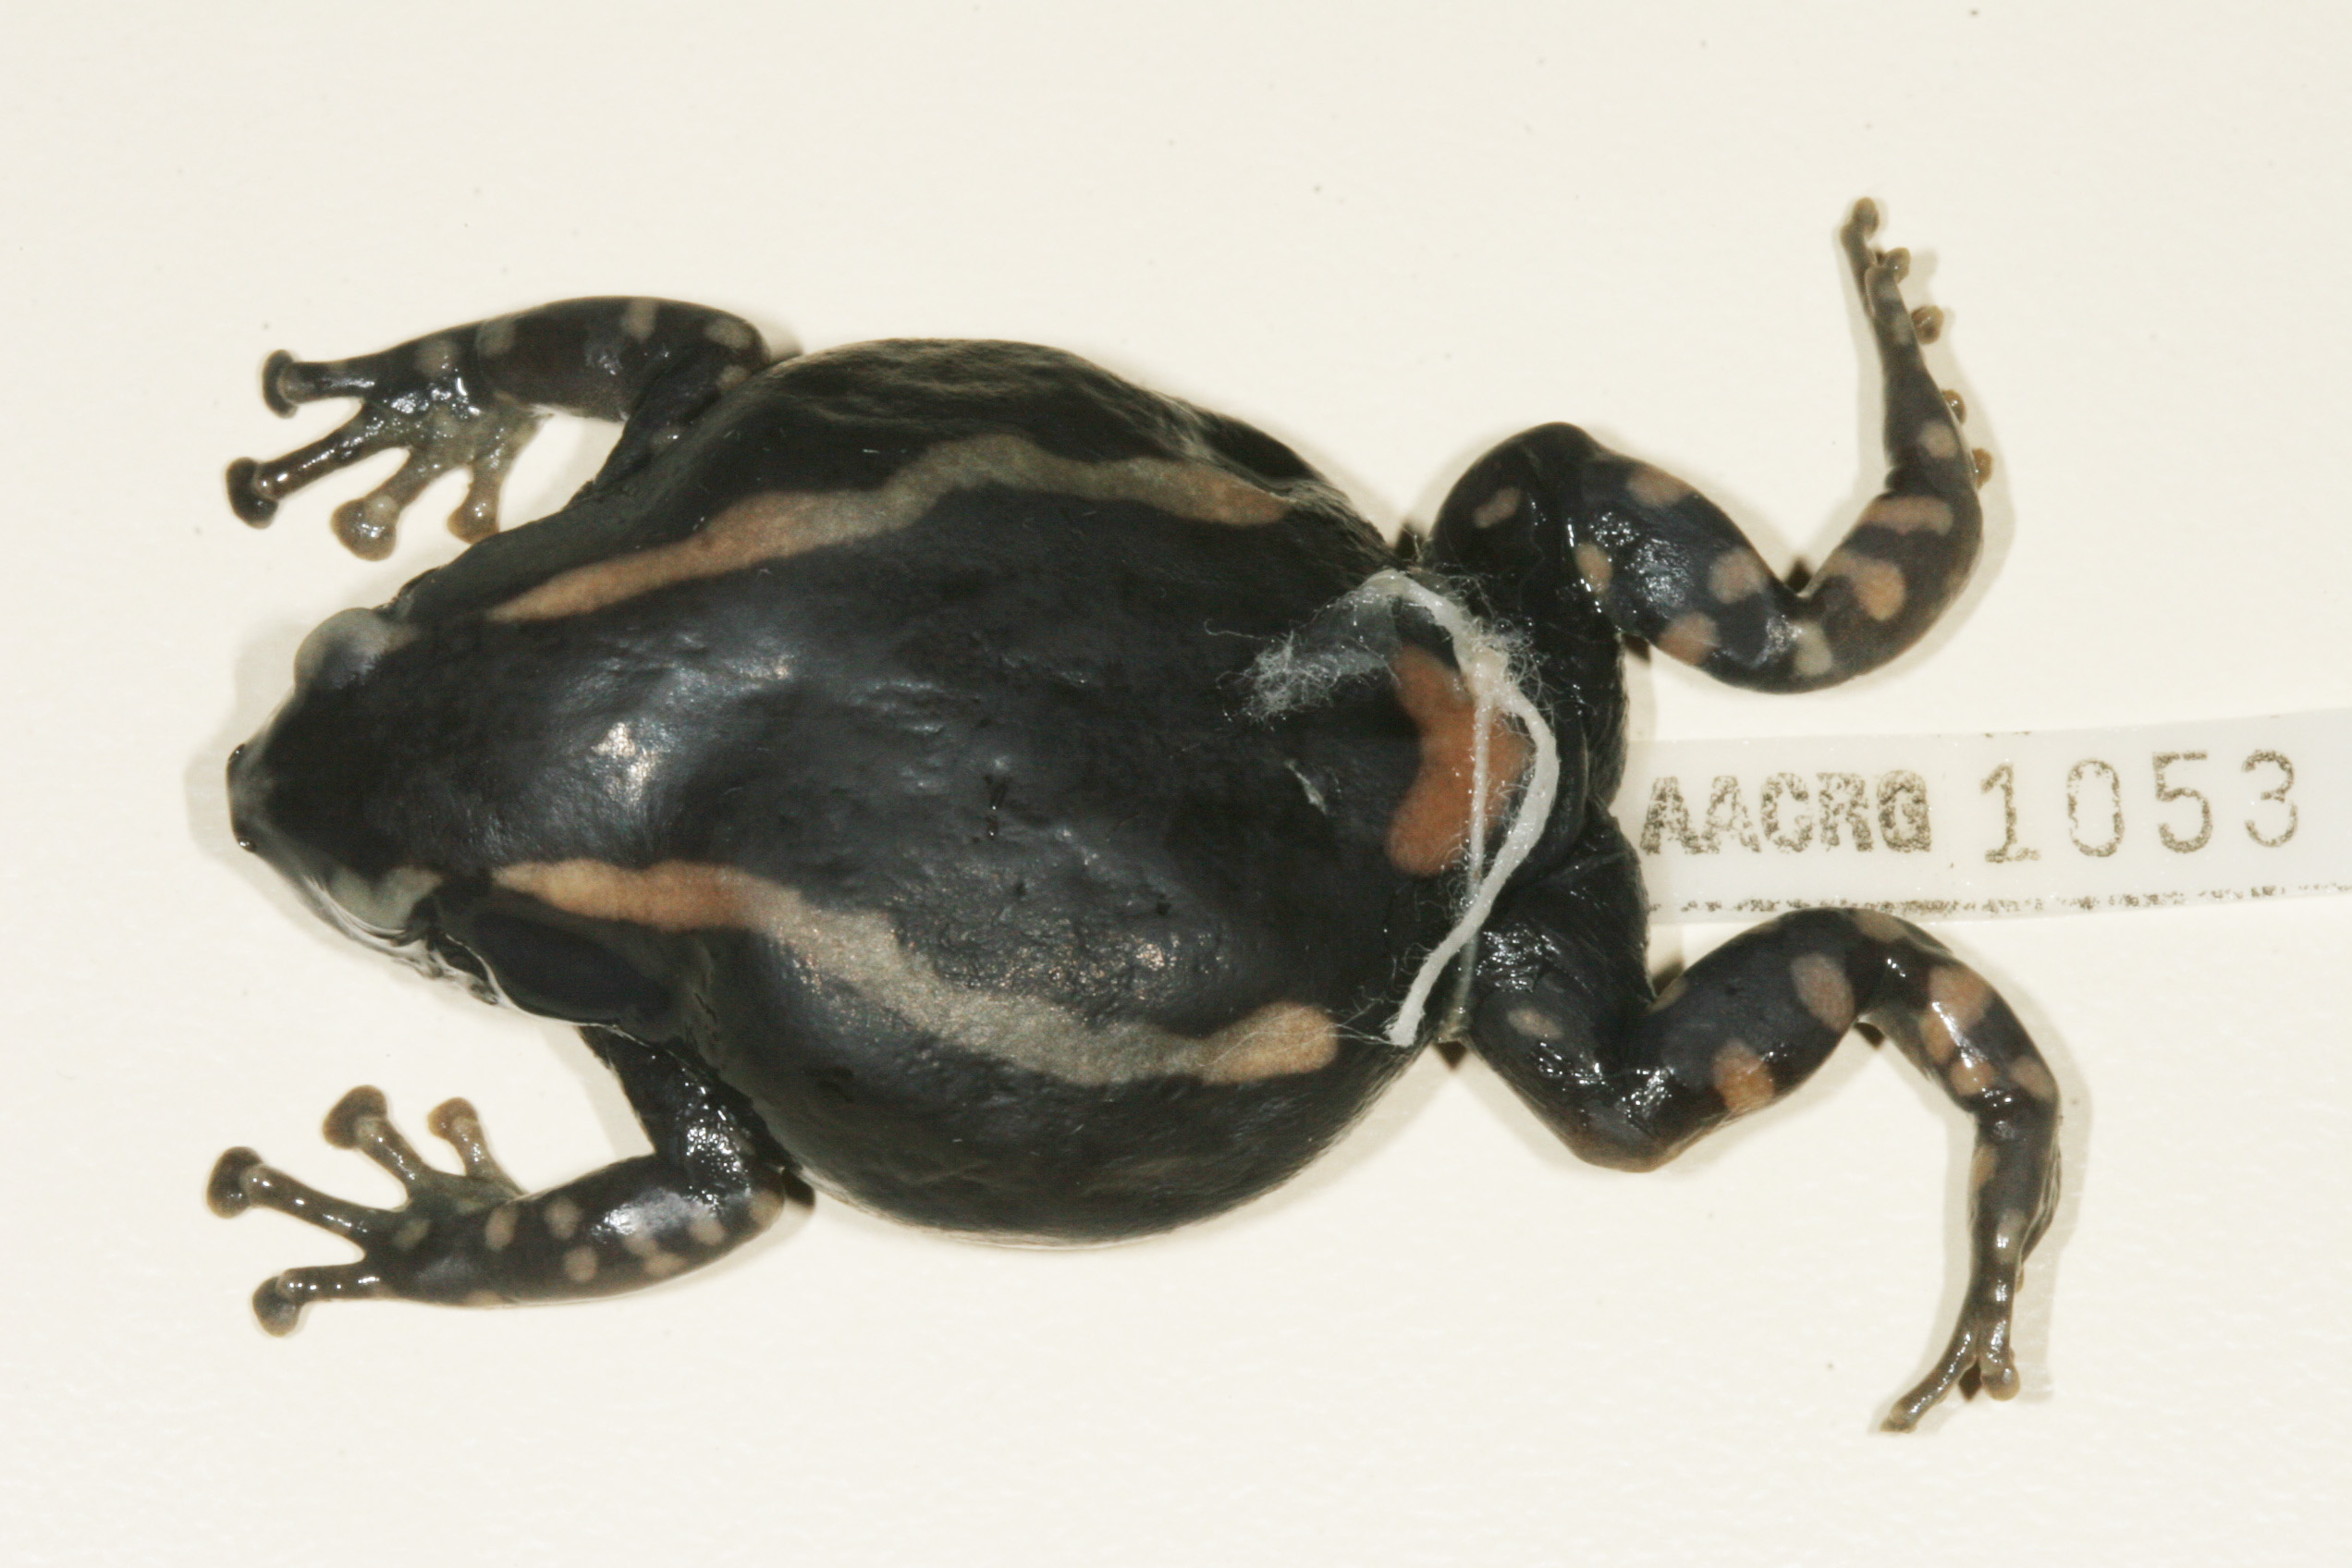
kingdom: Animalia
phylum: Chordata
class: Amphibia
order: Anura
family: Microhylidae
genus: Phrynomantis
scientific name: Phrynomantis bifasciatus
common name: Banded rubber frog
